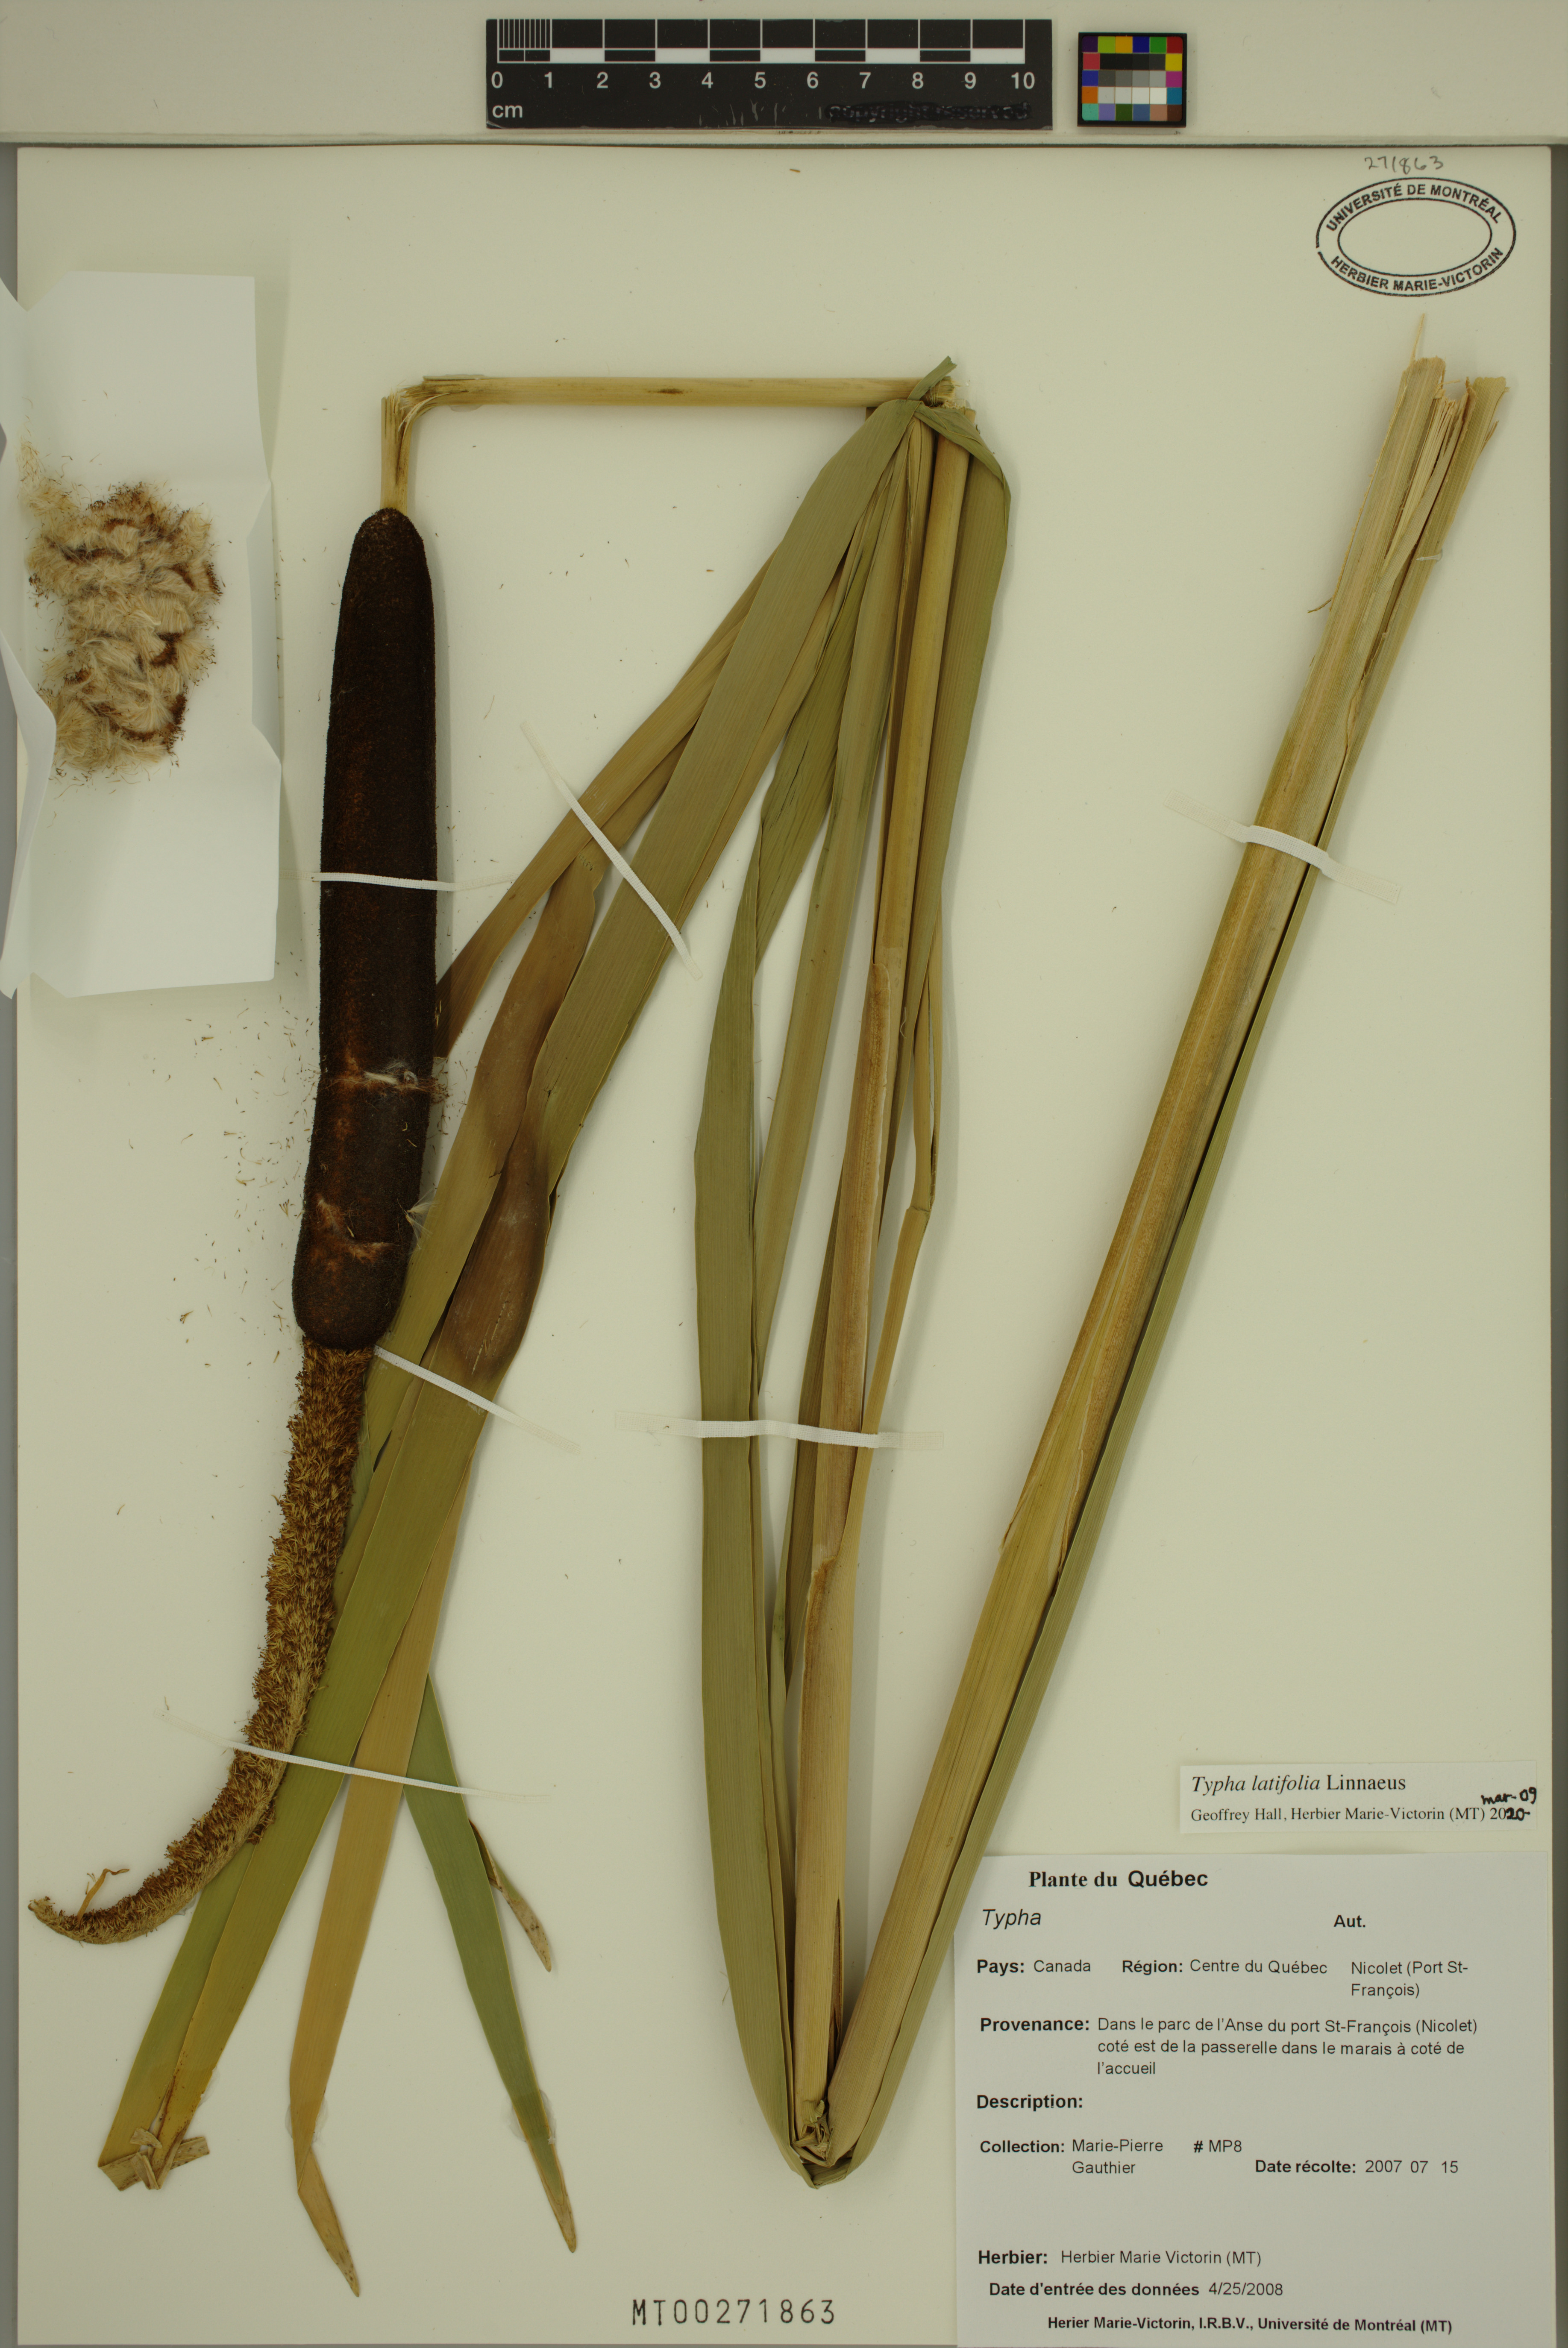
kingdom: Plantae
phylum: Tracheophyta
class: Liliopsida
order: Poales
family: Typhaceae
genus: Typha
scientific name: Typha latifolia
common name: Broadleaf cattail
